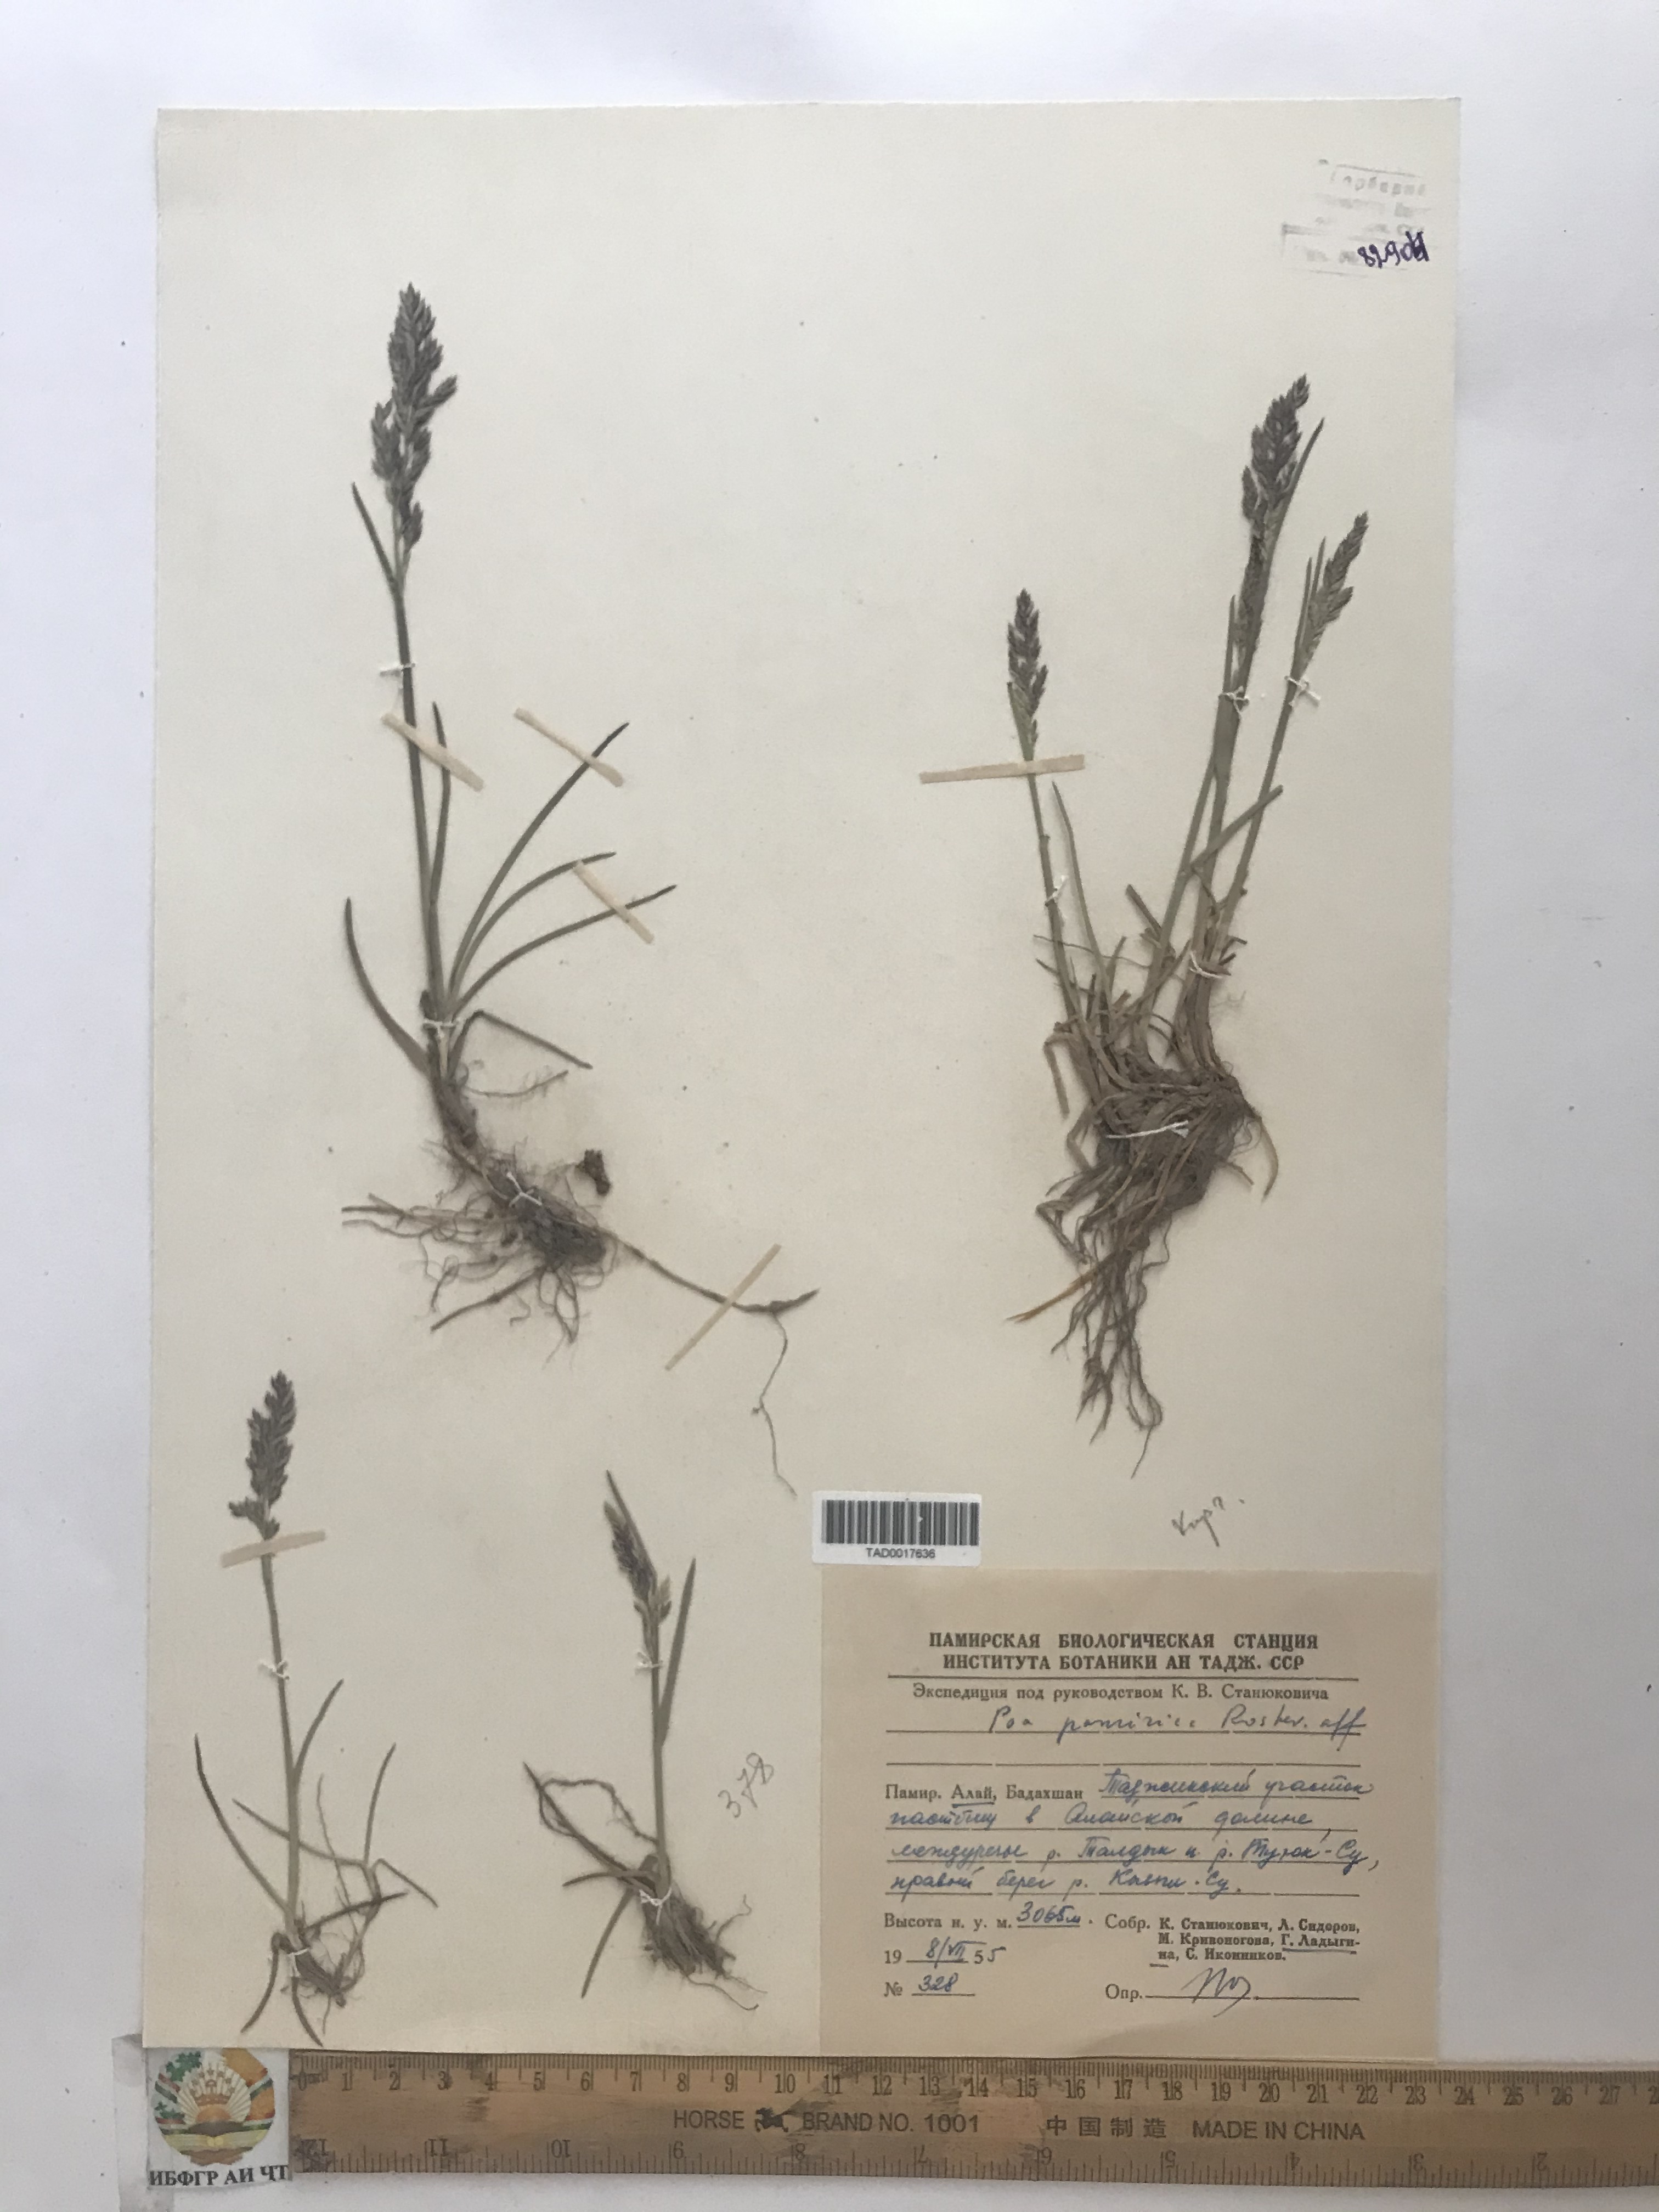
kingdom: Plantae
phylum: Tracheophyta
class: Liliopsida
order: Poales
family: Poaceae
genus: Poa
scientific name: Poa tianschanica
